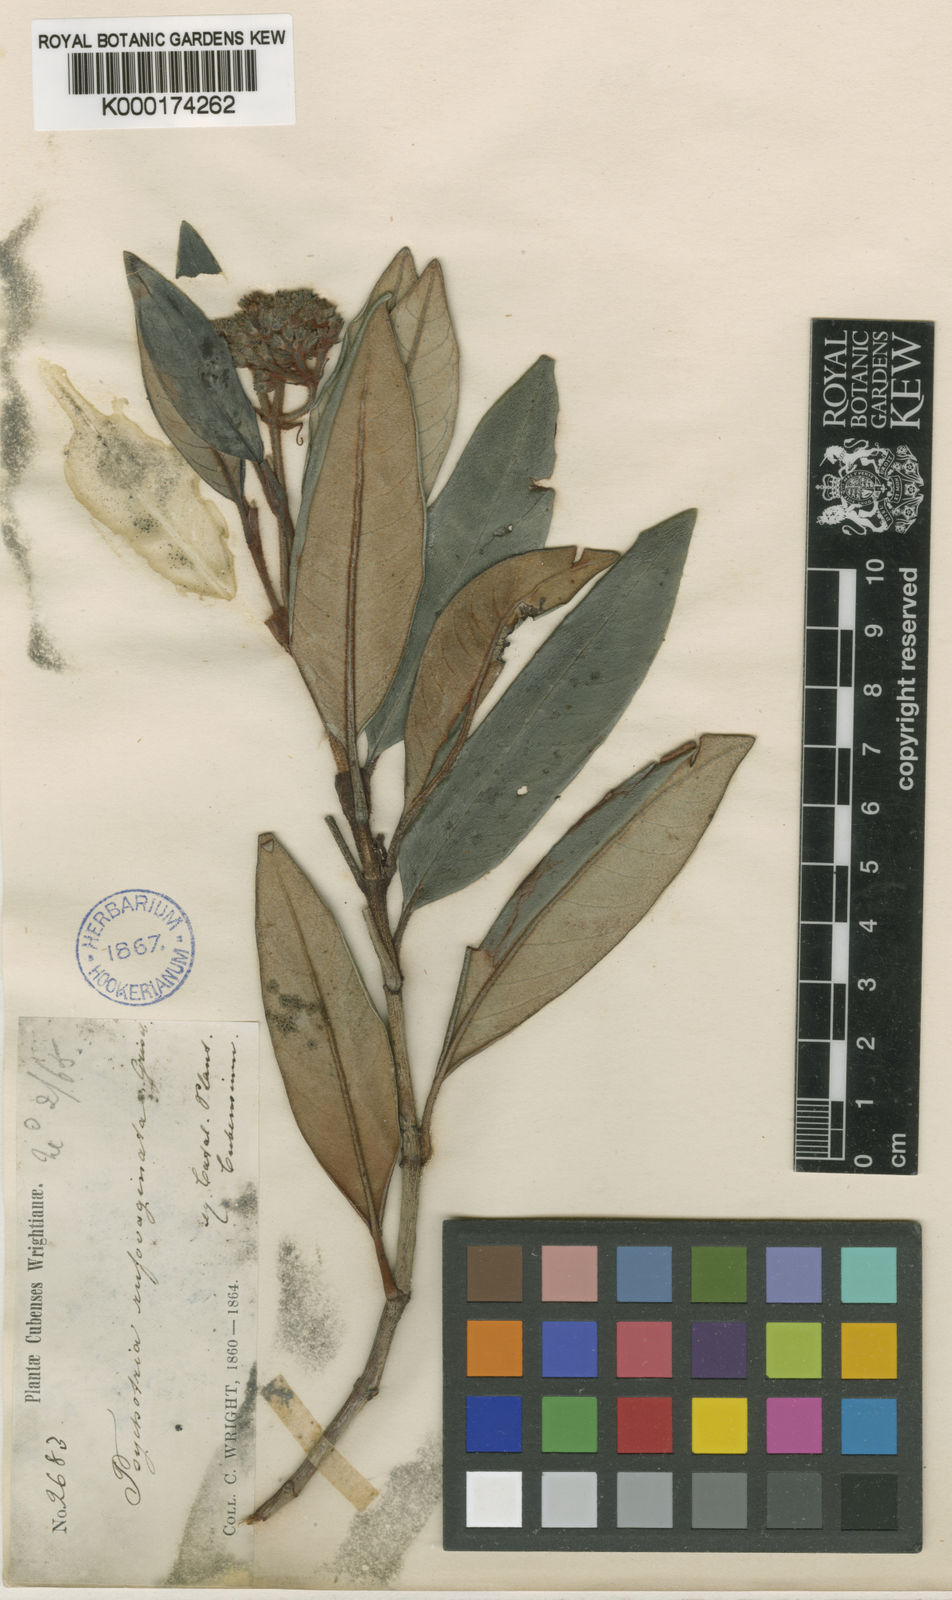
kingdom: Plantae
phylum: Tracheophyta
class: Magnoliopsida
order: Gentianales
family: Rubiaceae
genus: Psychotria
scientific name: Psychotria rufovaginata
